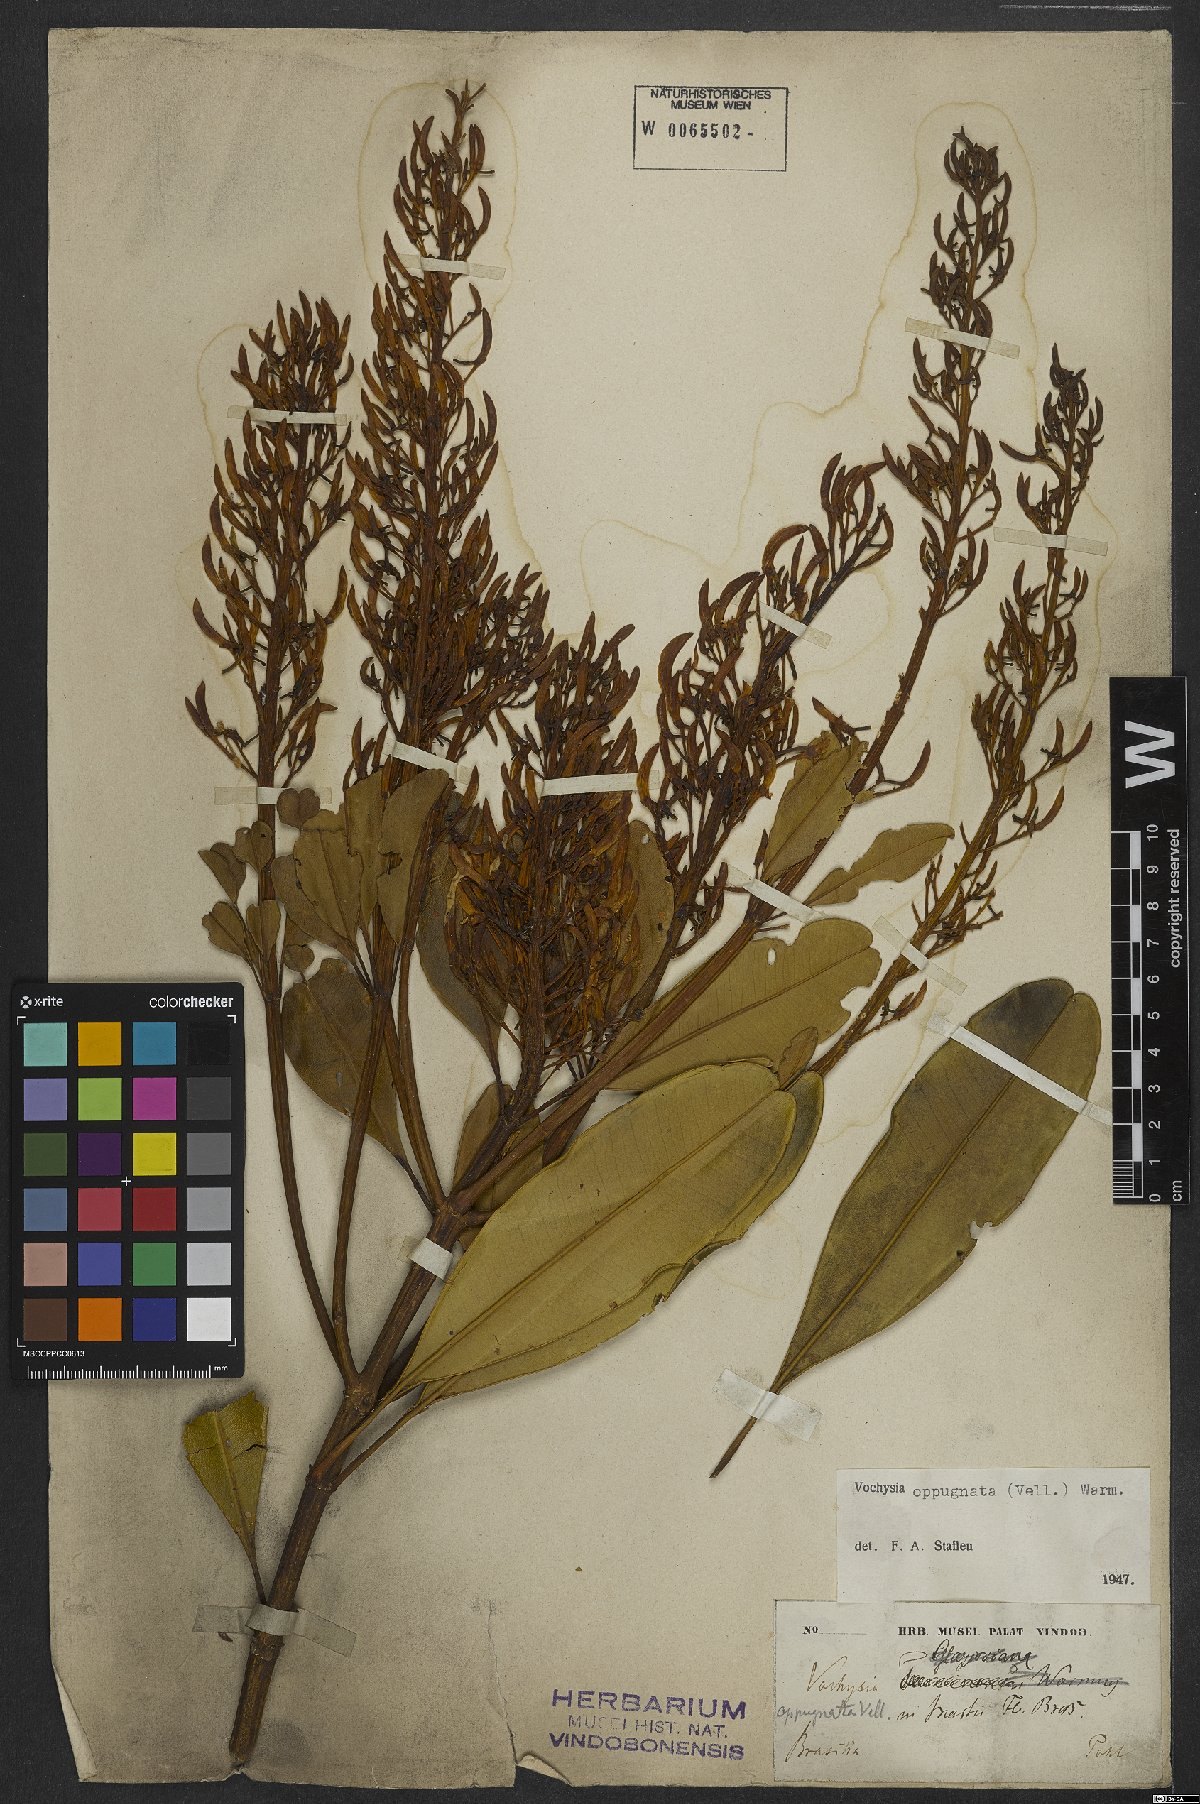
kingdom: Plantae
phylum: Tracheophyta
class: Magnoliopsida
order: Myrtales
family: Vochysiaceae
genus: Vochysia
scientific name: Vochysia oppugnata
